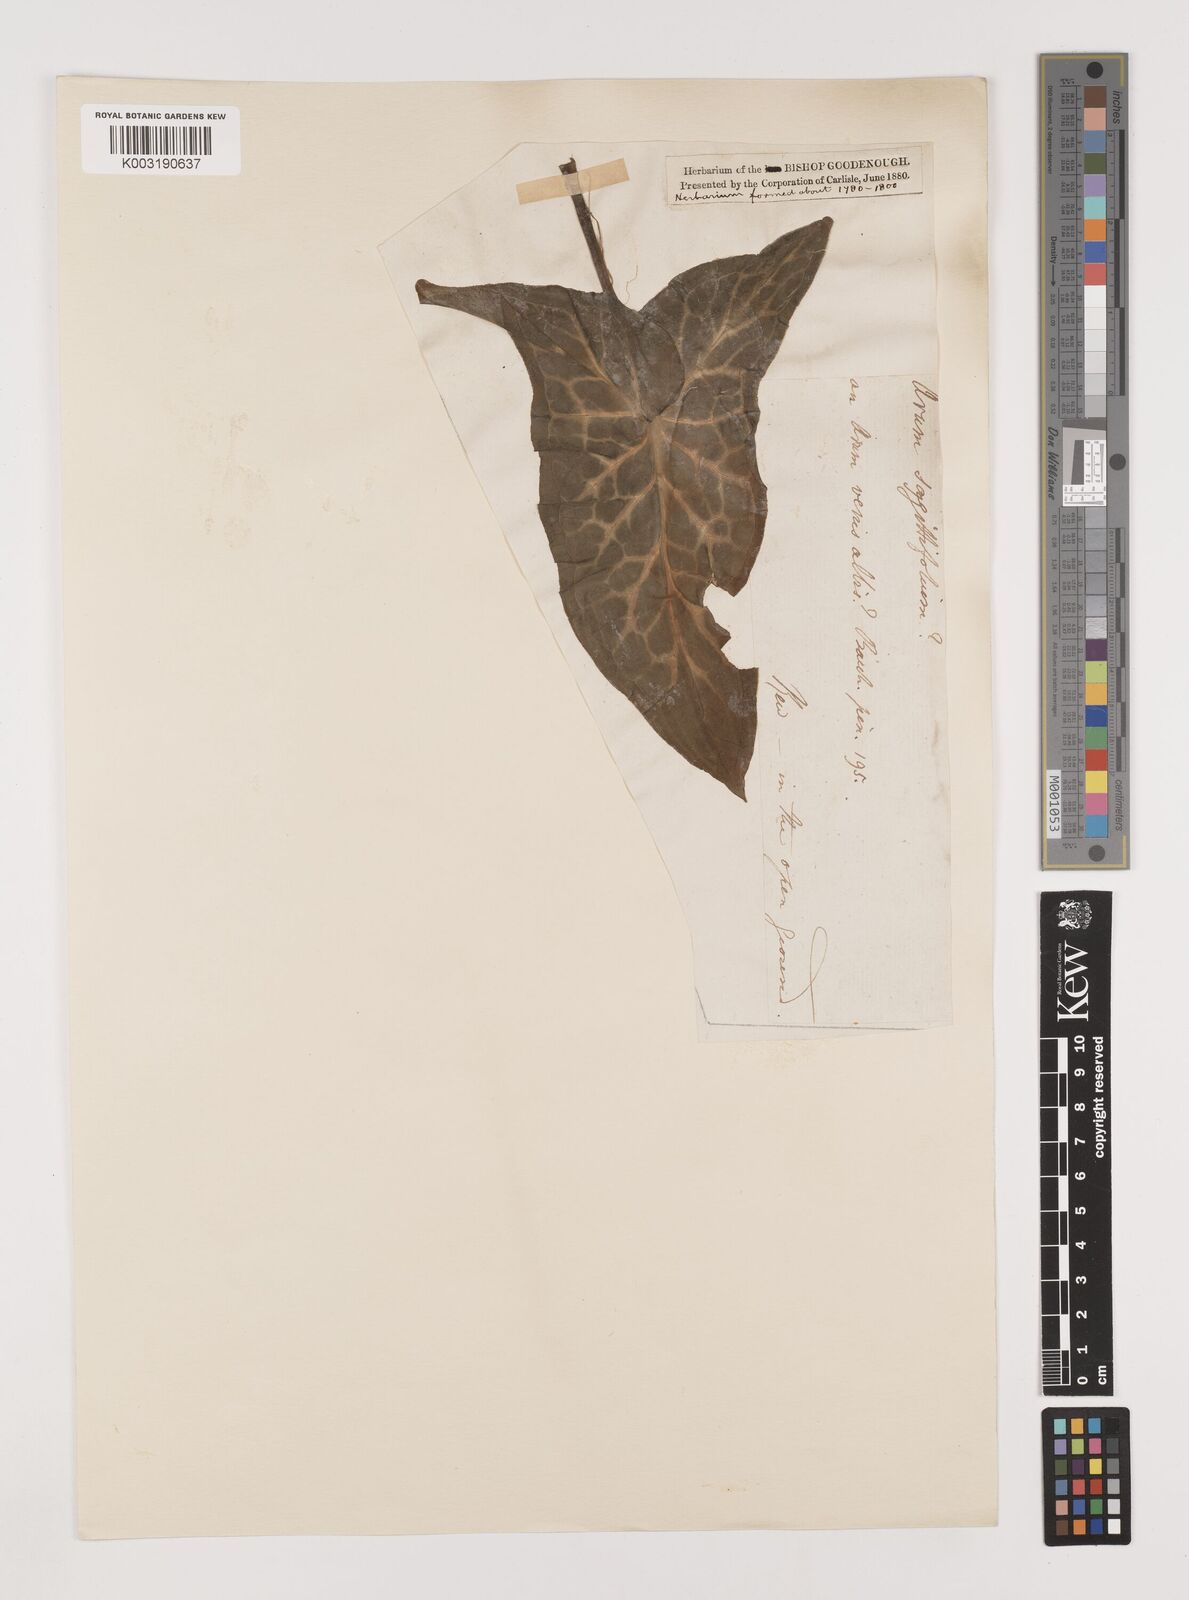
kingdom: Plantae
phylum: Tracheophyta
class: Liliopsida
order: Alismatales
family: Araceae
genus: Arum
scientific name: Arum italicum
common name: Italian lords-and-ladies
